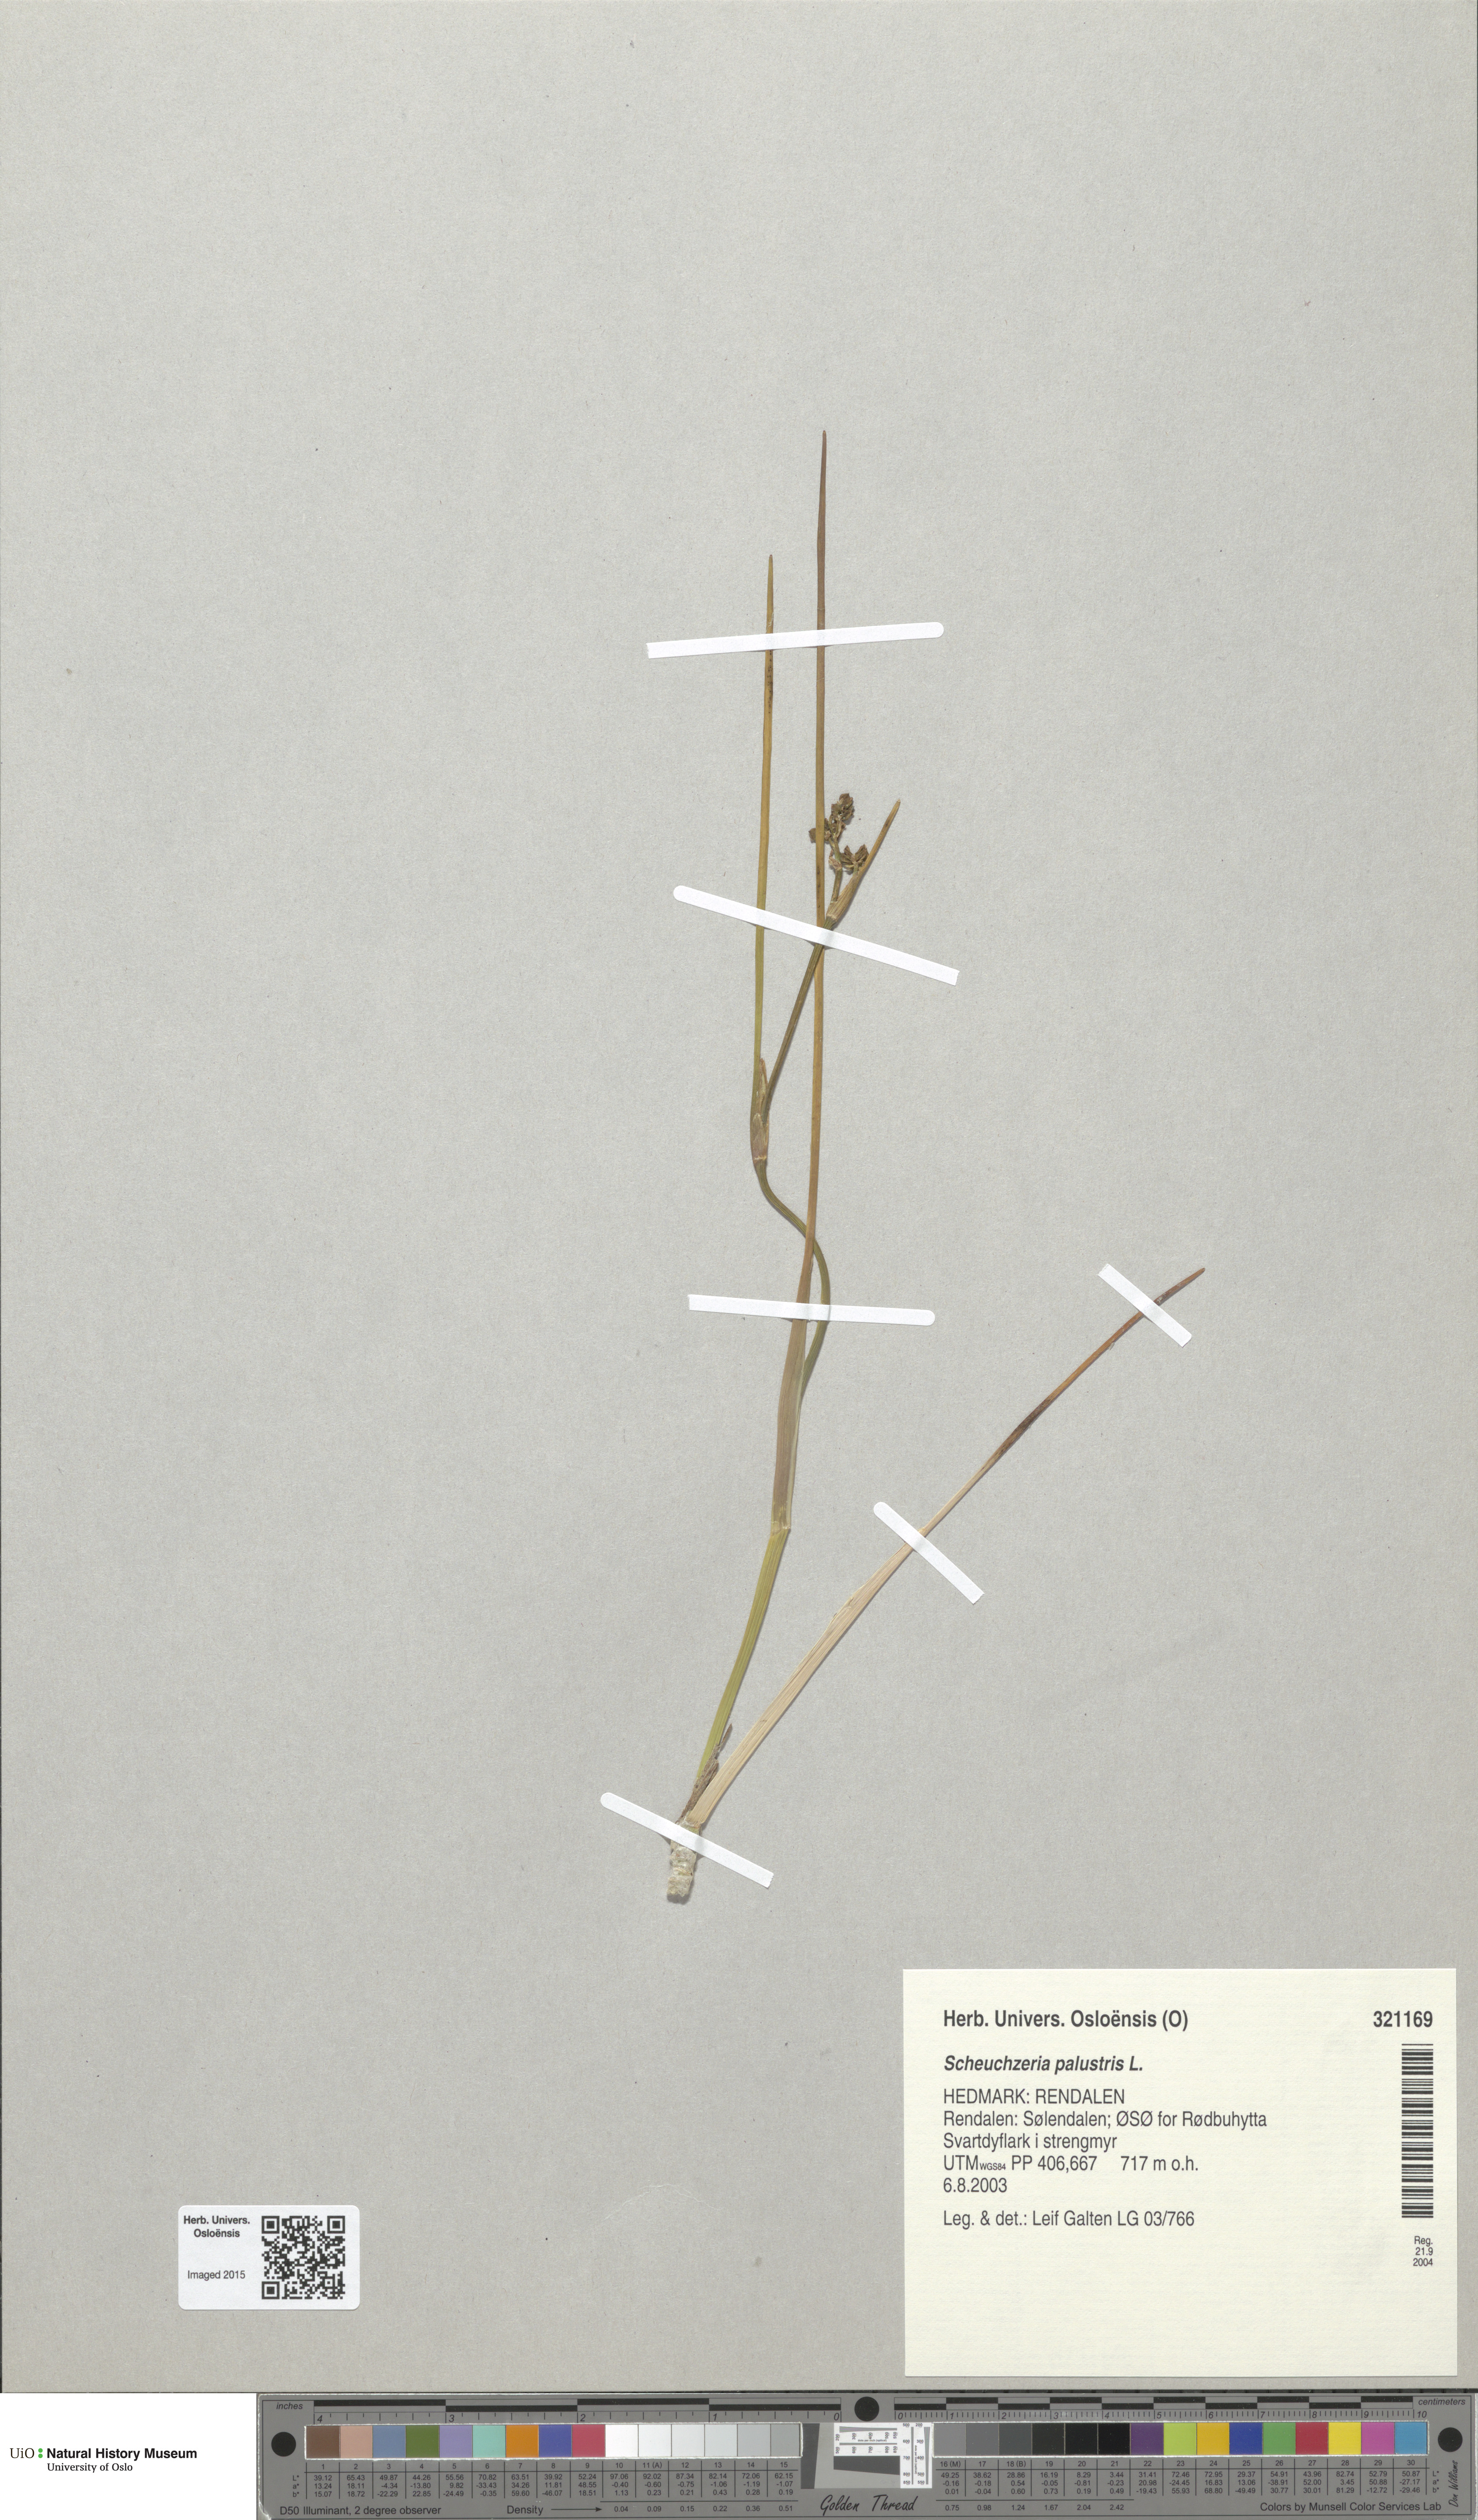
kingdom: Plantae
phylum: Tracheophyta
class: Liliopsida
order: Alismatales
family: Scheuchzeriaceae
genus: Scheuchzeria
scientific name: Scheuchzeria palustris
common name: Rannoch-rush
